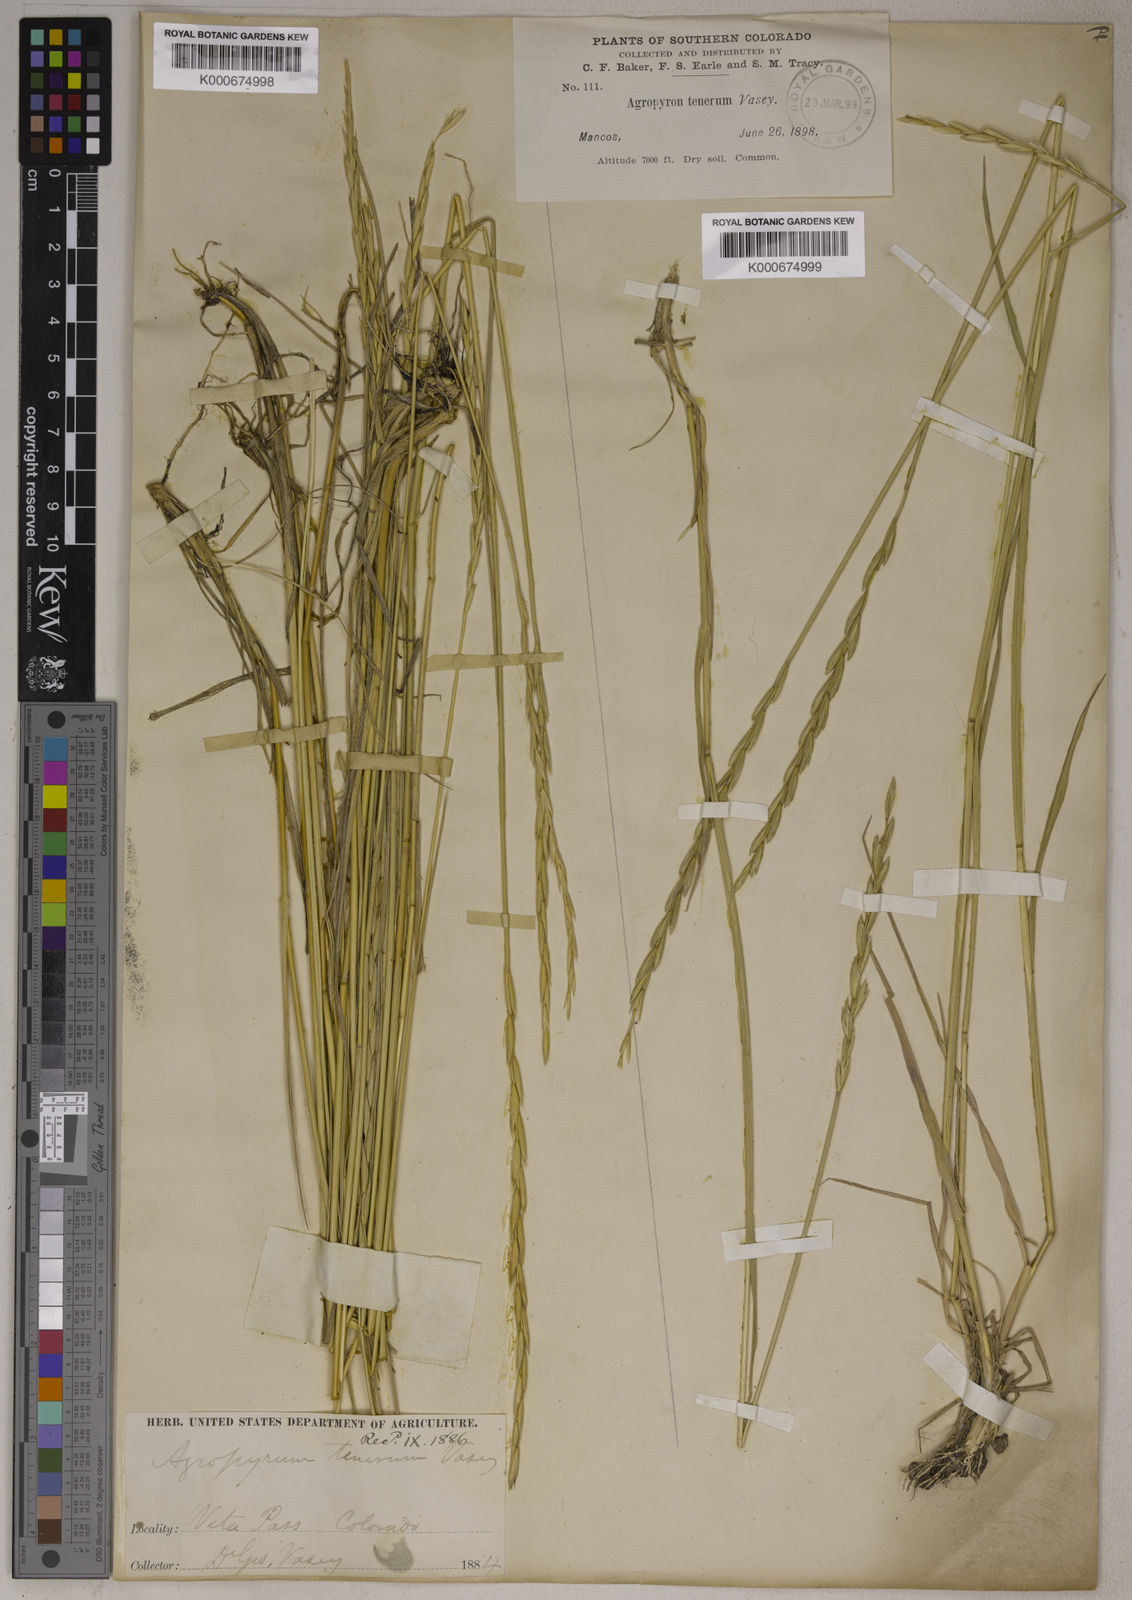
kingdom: Plantae
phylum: Tracheophyta
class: Liliopsida
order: Poales
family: Poaceae
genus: Elymus
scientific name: Elymus
